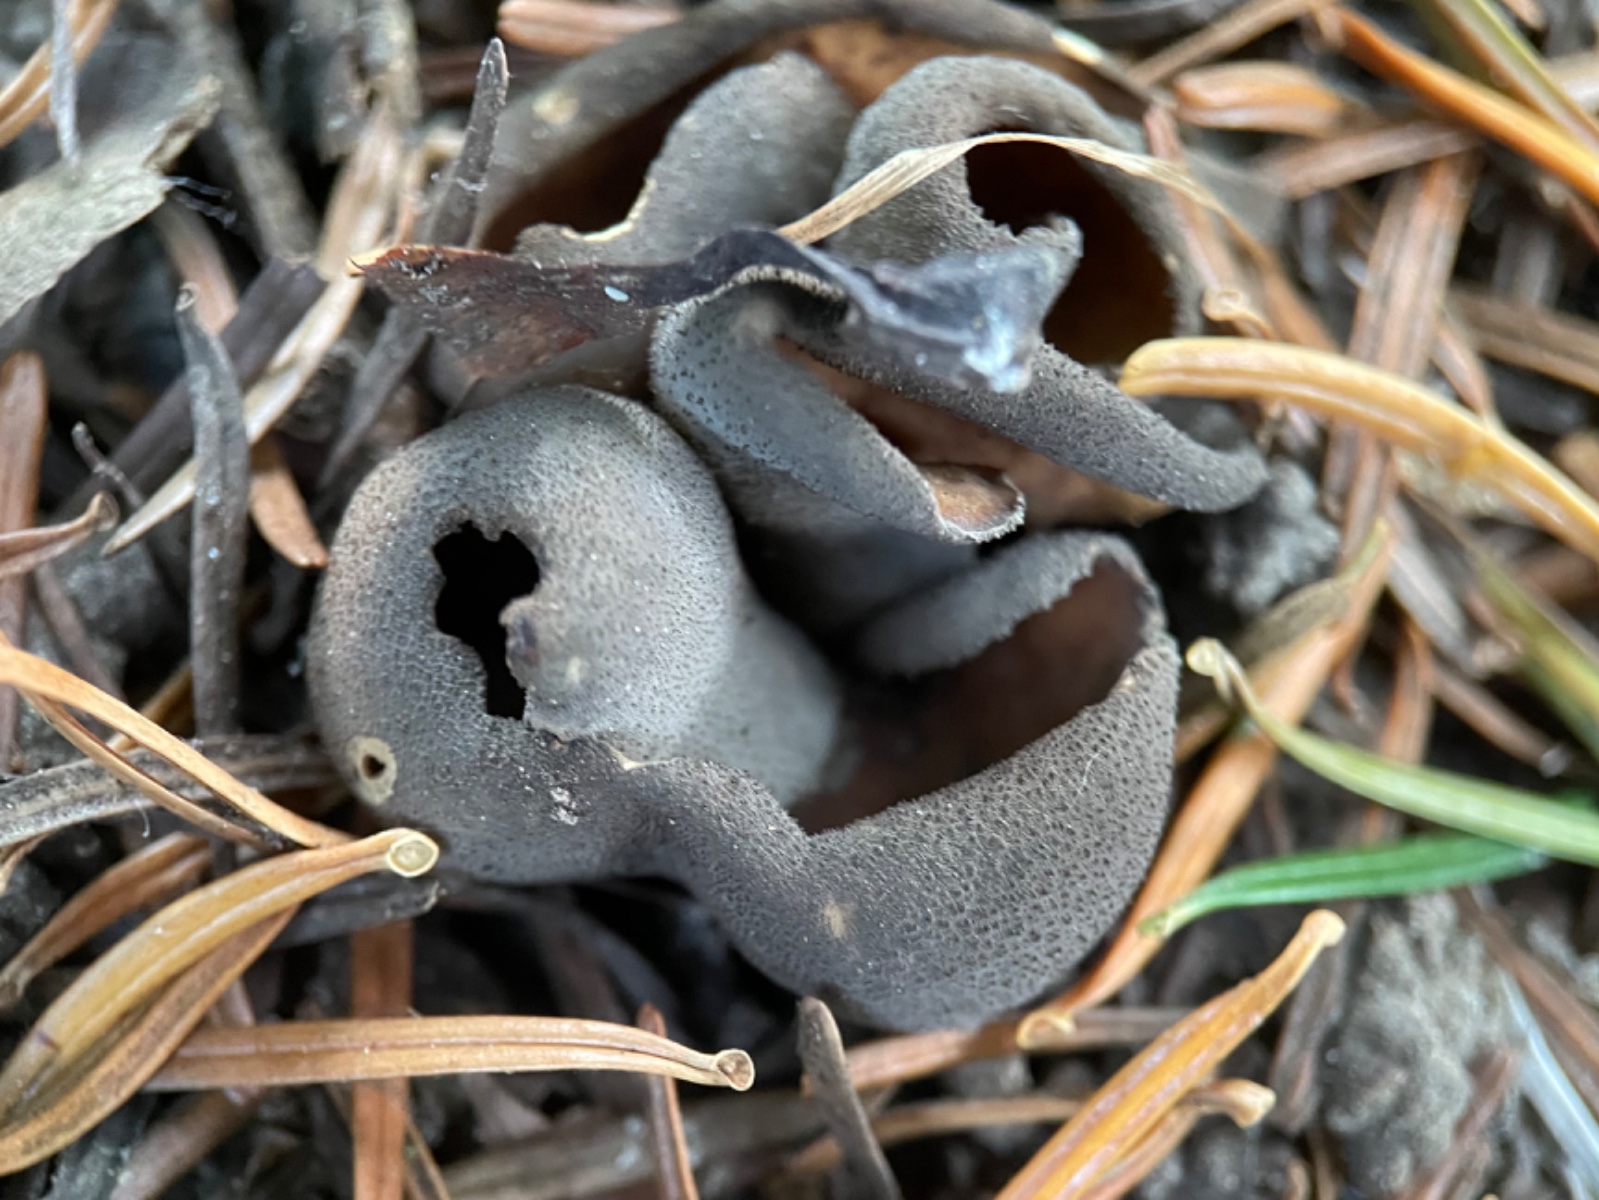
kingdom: Fungi
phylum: Ascomycota
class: Pezizomycetes
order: Pezizales
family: Otideaceae
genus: Otidea
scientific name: Otidea bufonia
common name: brun ørebæger
